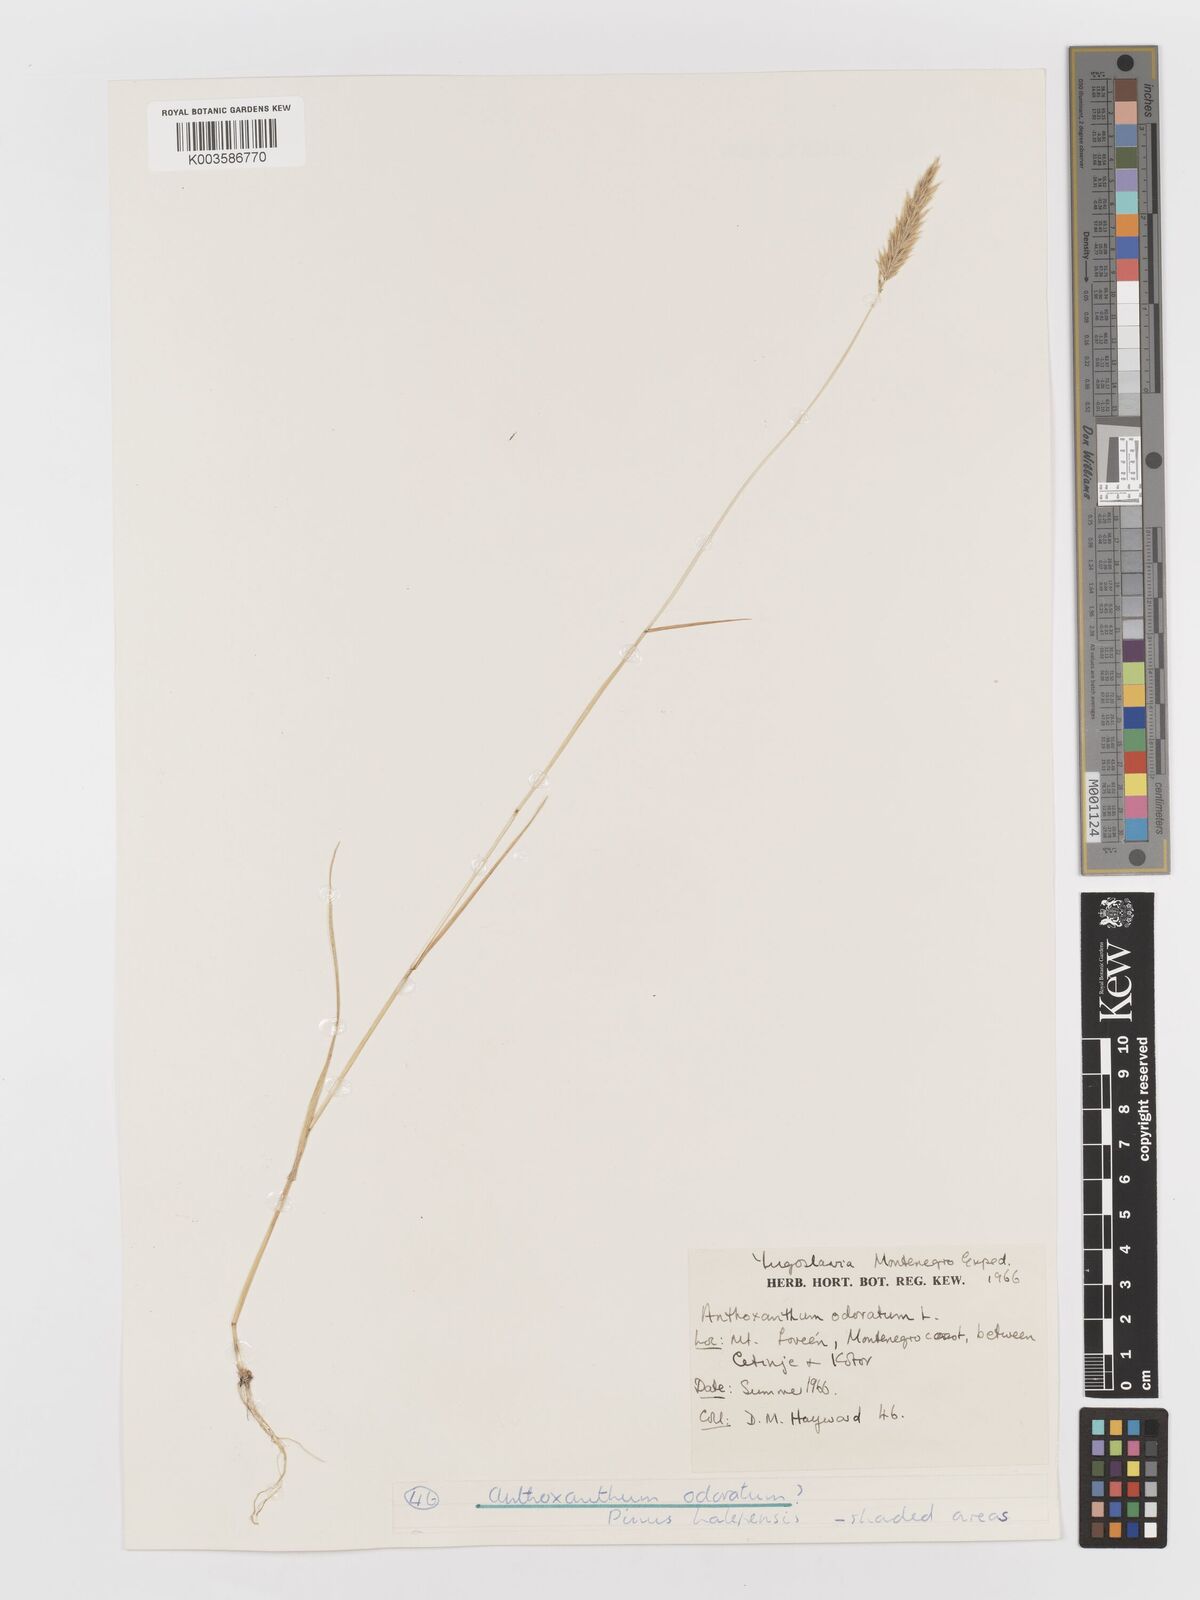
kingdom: Plantae
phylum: Tracheophyta
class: Liliopsida
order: Poales
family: Poaceae
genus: Anthoxanthum
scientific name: Anthoxanthum odoratum
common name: Sweet vernalgrass
